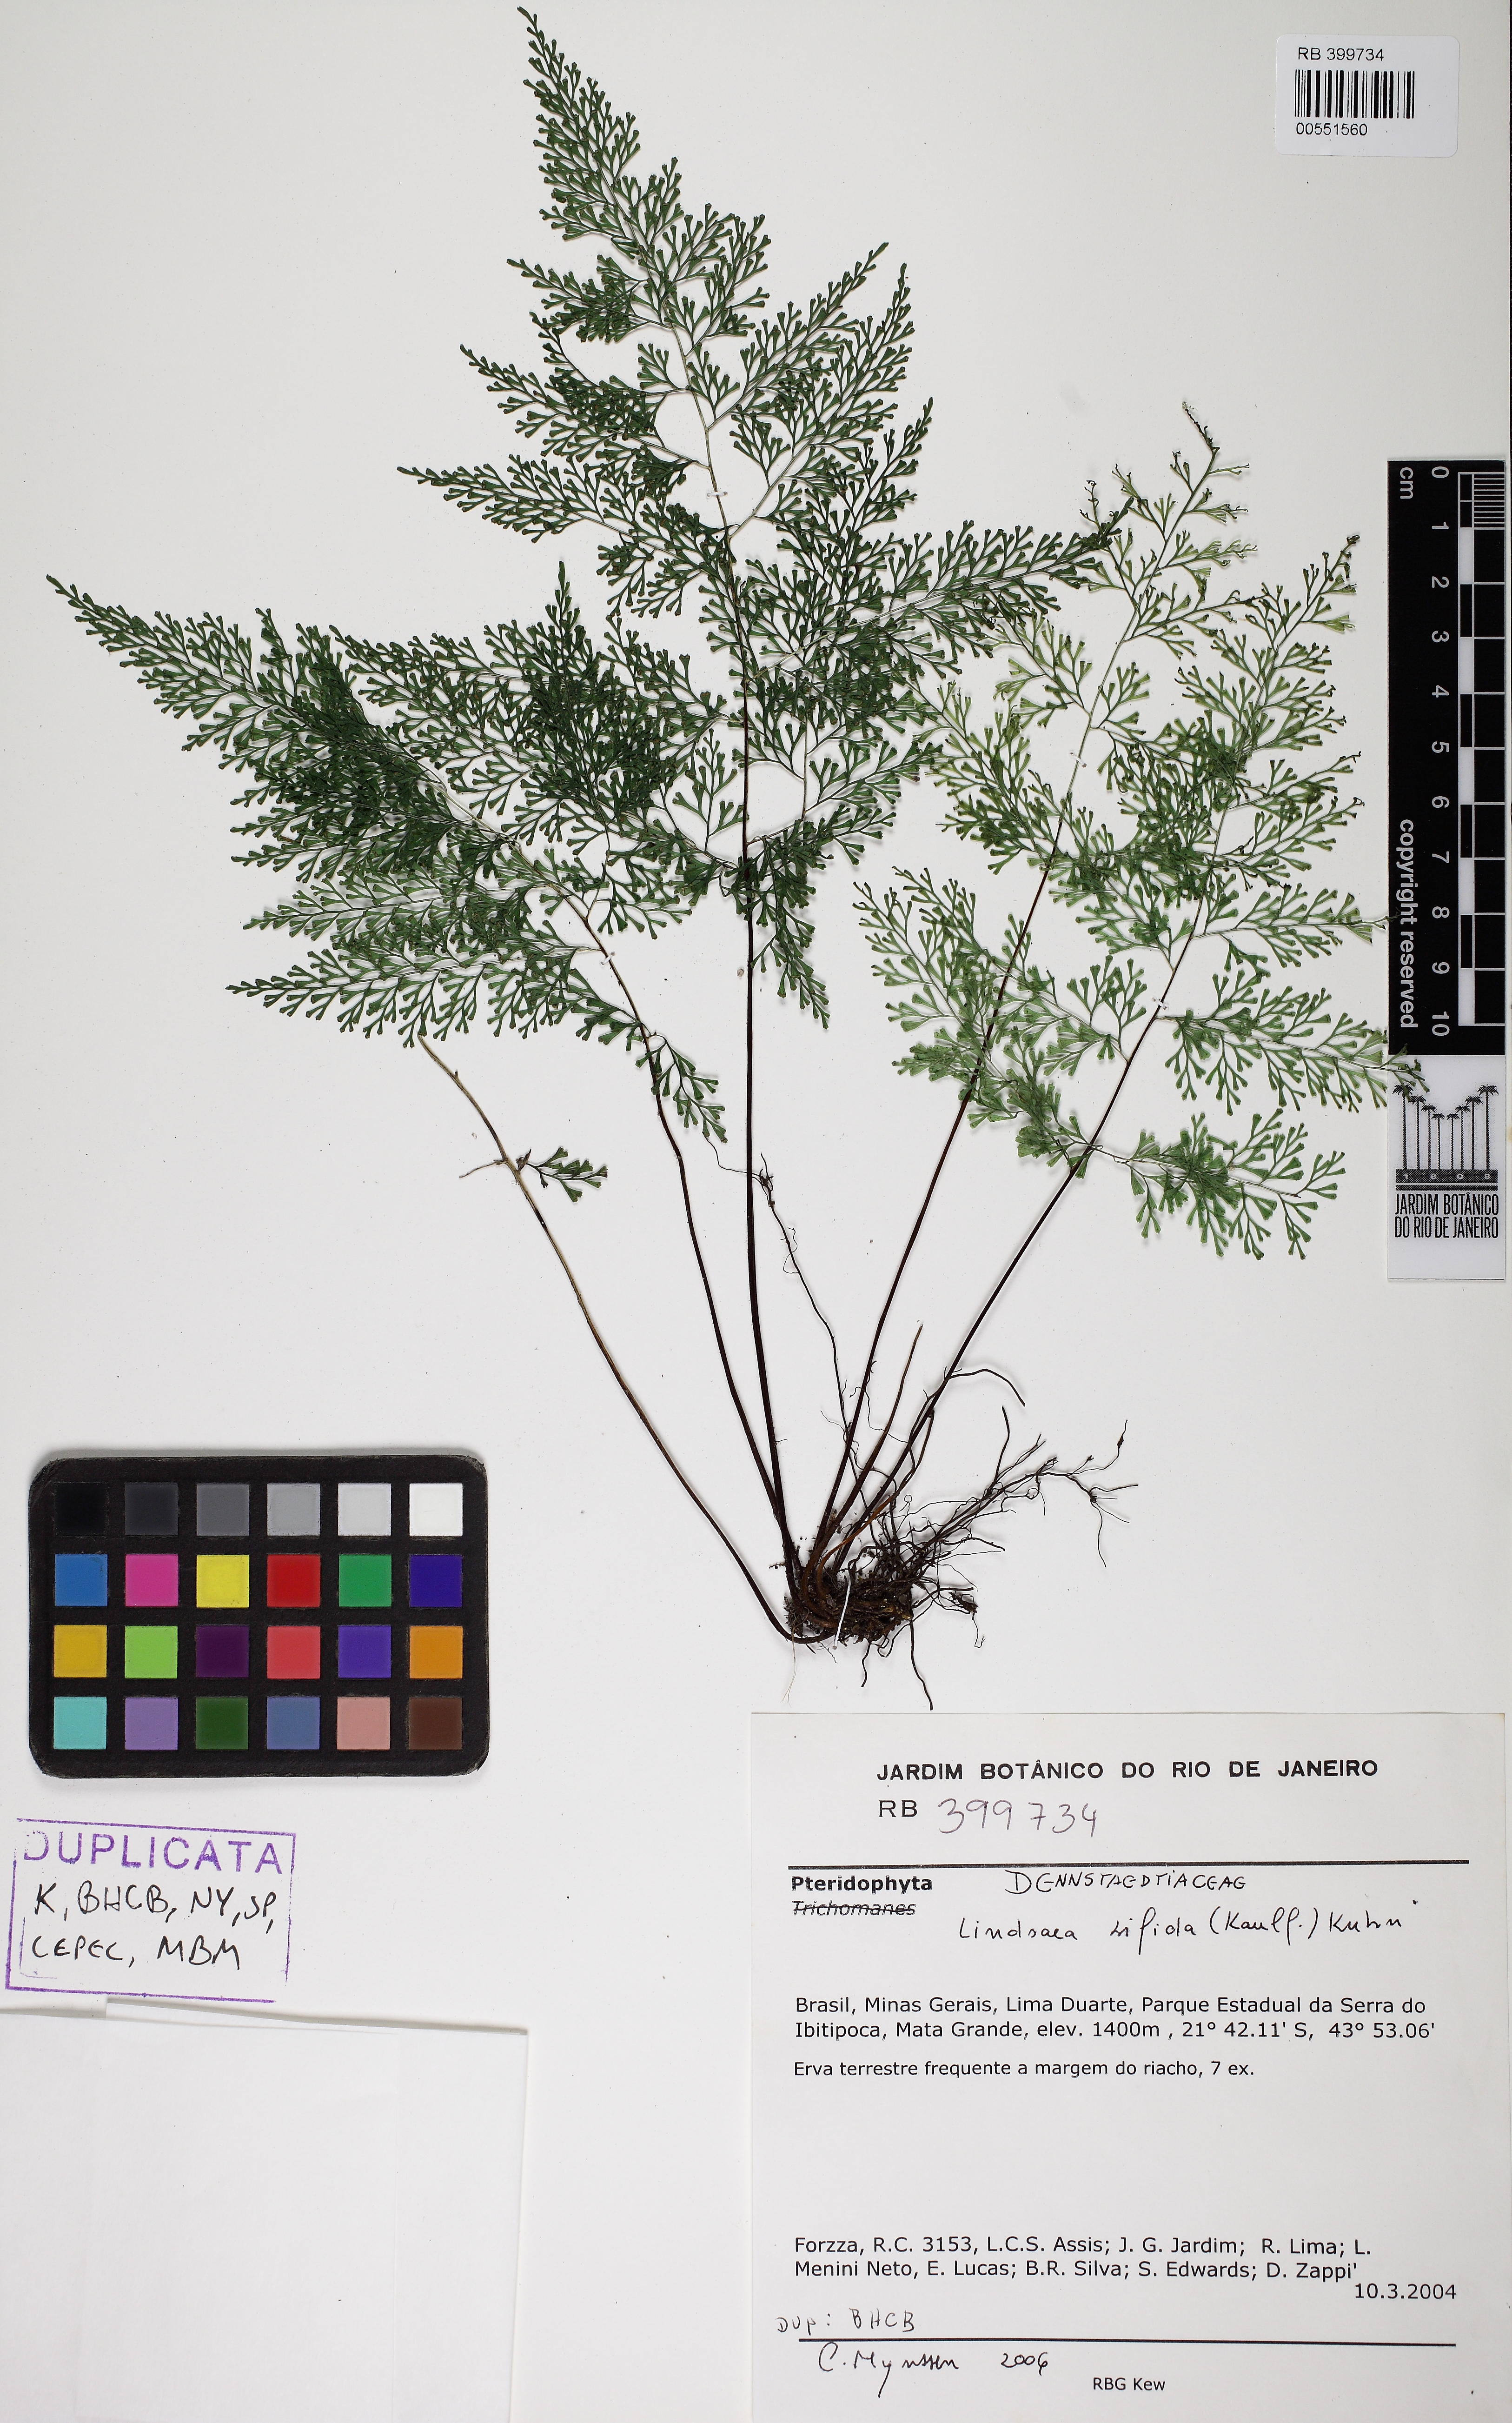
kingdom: Plantae
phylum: Tracheophyta
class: Polypodiopsida
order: Polypodiales
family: Lindsaeaceae
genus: Lindsaea
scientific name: Lindsaea bifida
